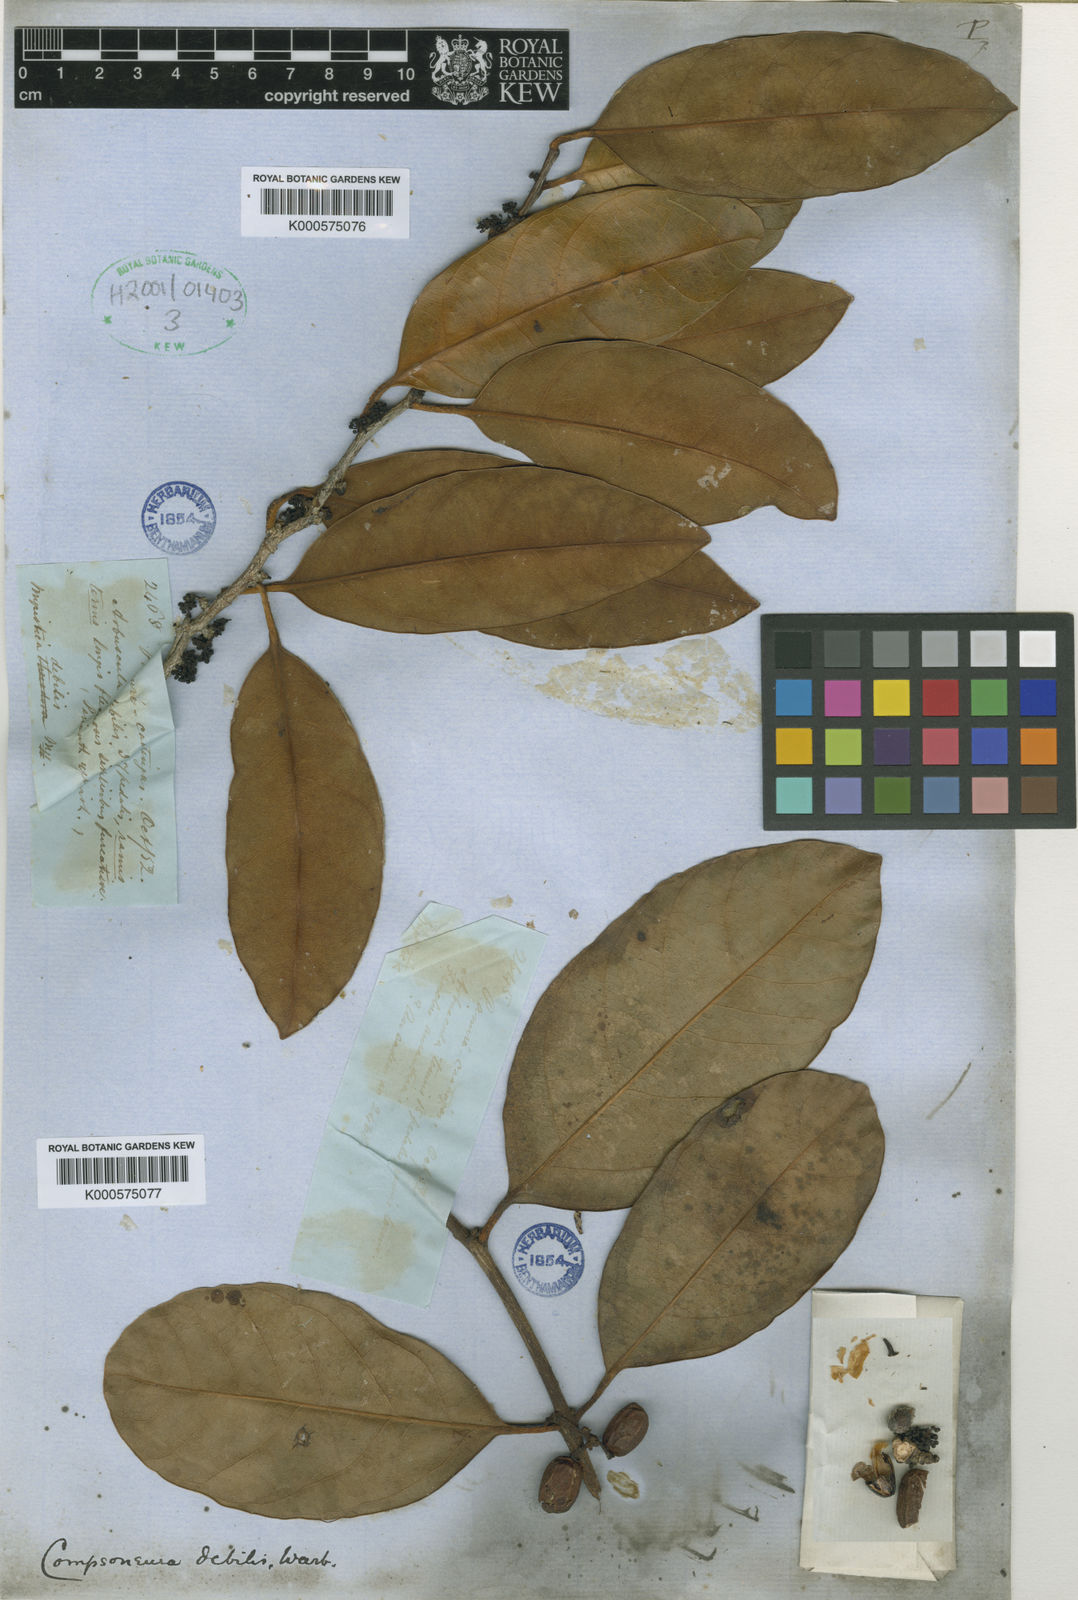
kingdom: Plantae
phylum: Tracheophyta
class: Magnoliopsida
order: Magnoliales
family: Myristicaceae
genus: Compsoneura
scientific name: Compsoneura debilis
